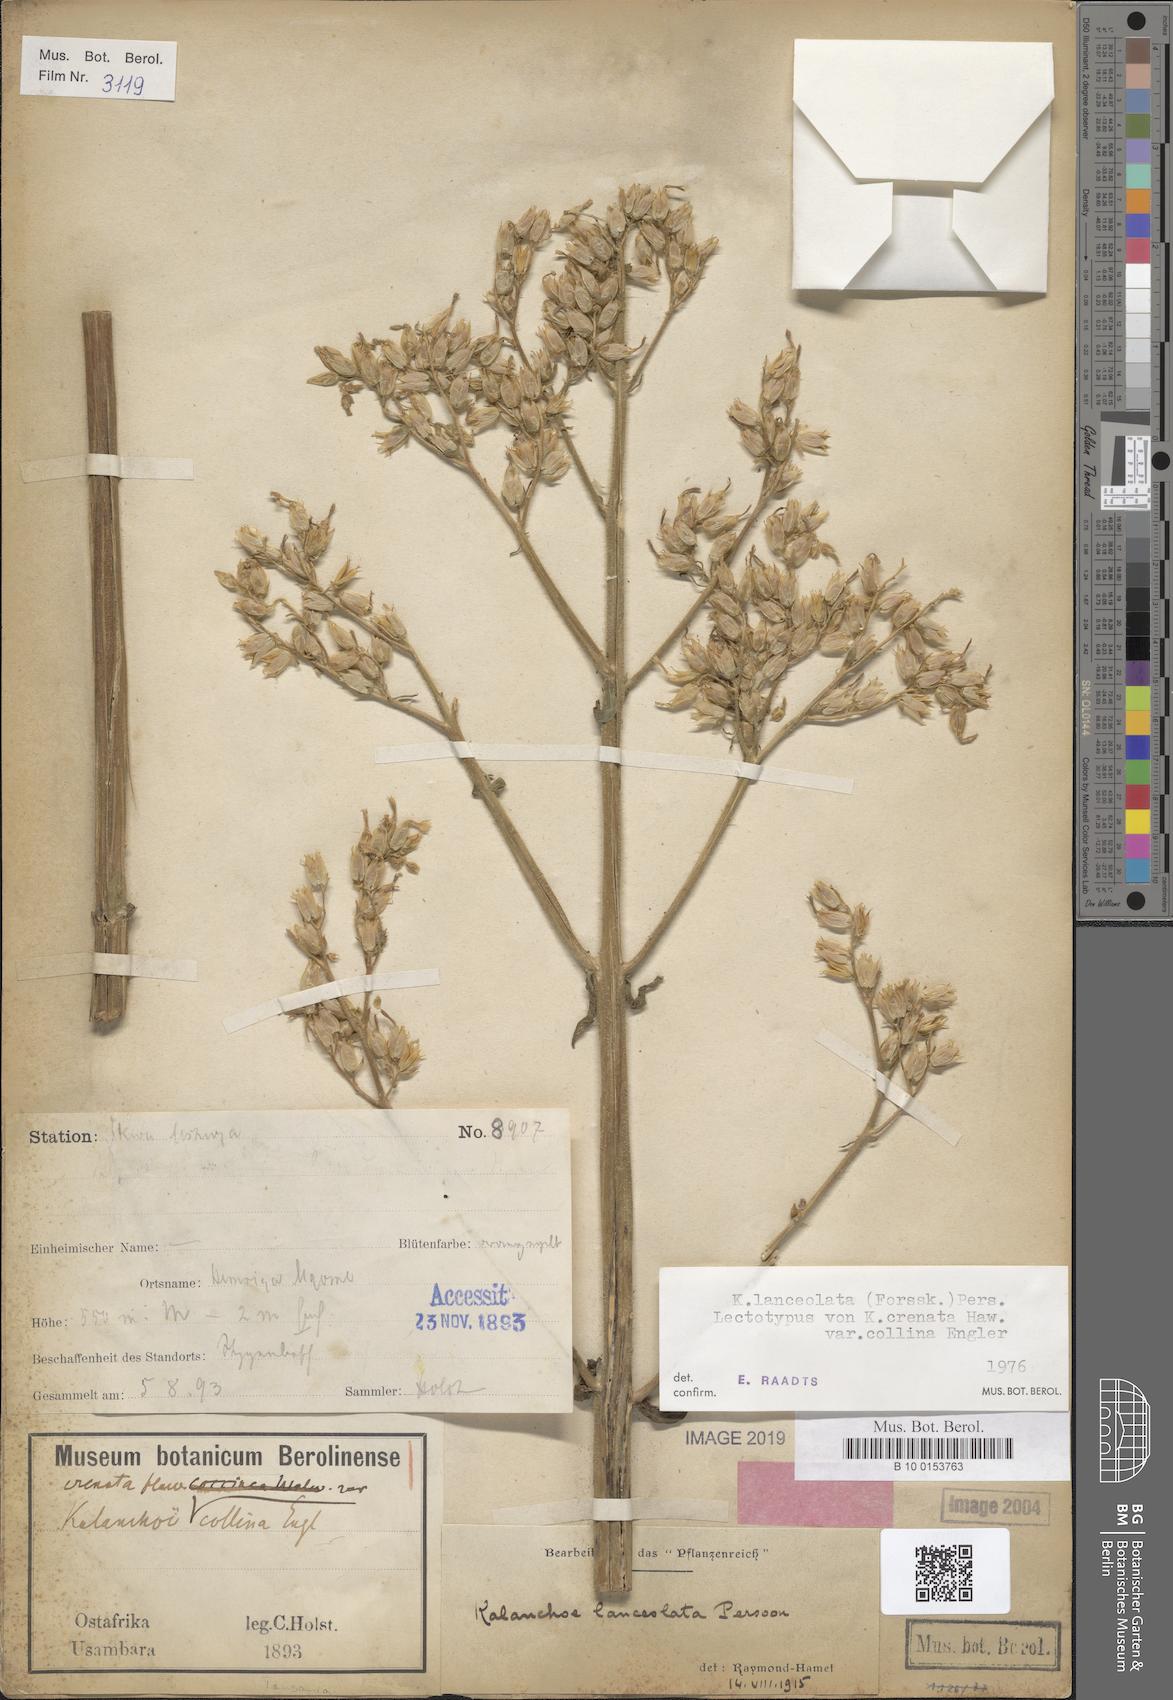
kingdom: Plantae
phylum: Tracheophyta
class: Magnoliopsida
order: Saxifragales
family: Crassulaceae
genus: Kalanchoe
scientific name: Kalanchoe lanceolata
